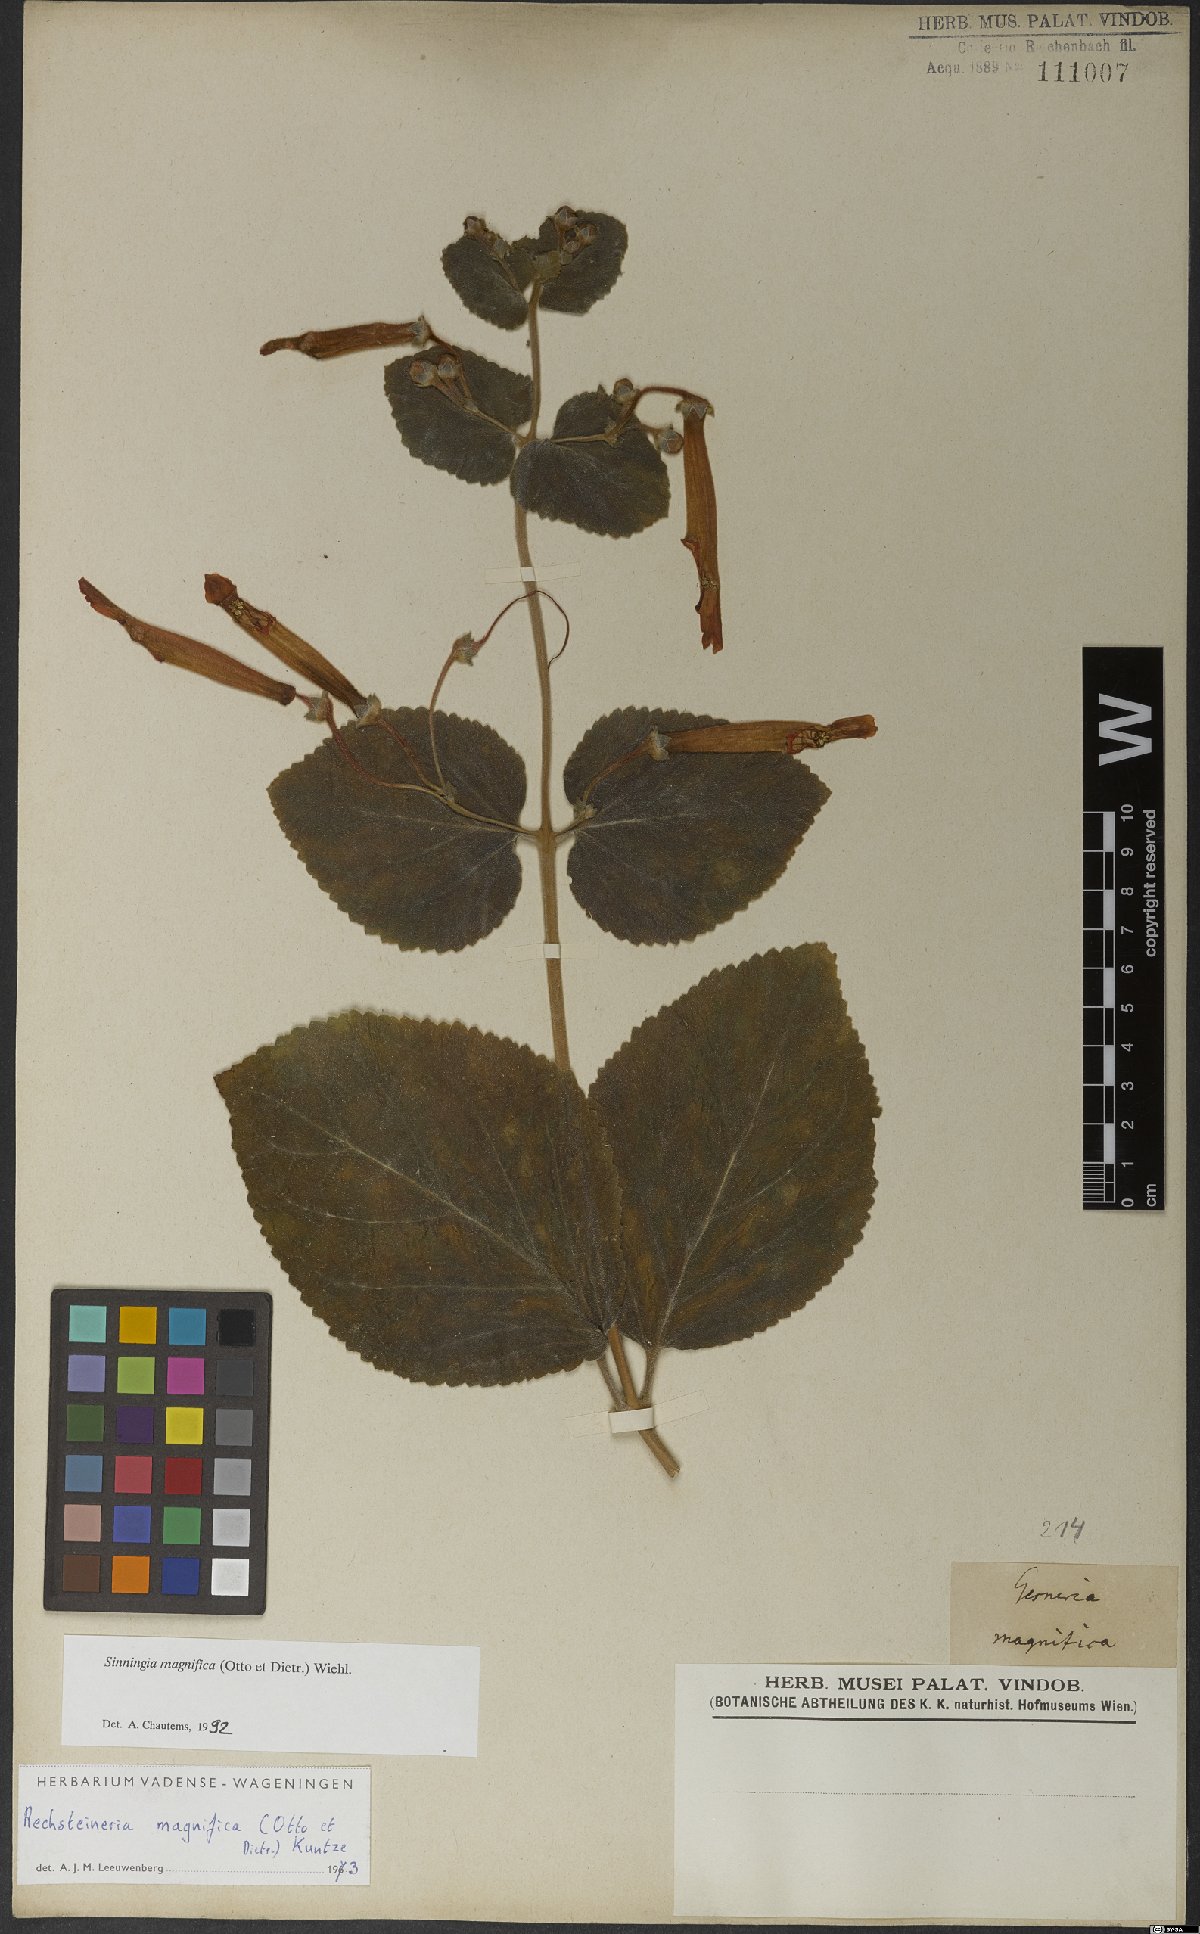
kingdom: Plantae
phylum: Tracheophyta
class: Magnoliopsida
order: Lamiales
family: Gesneriaceae
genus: Sinningia
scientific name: Sinningia magnifica
